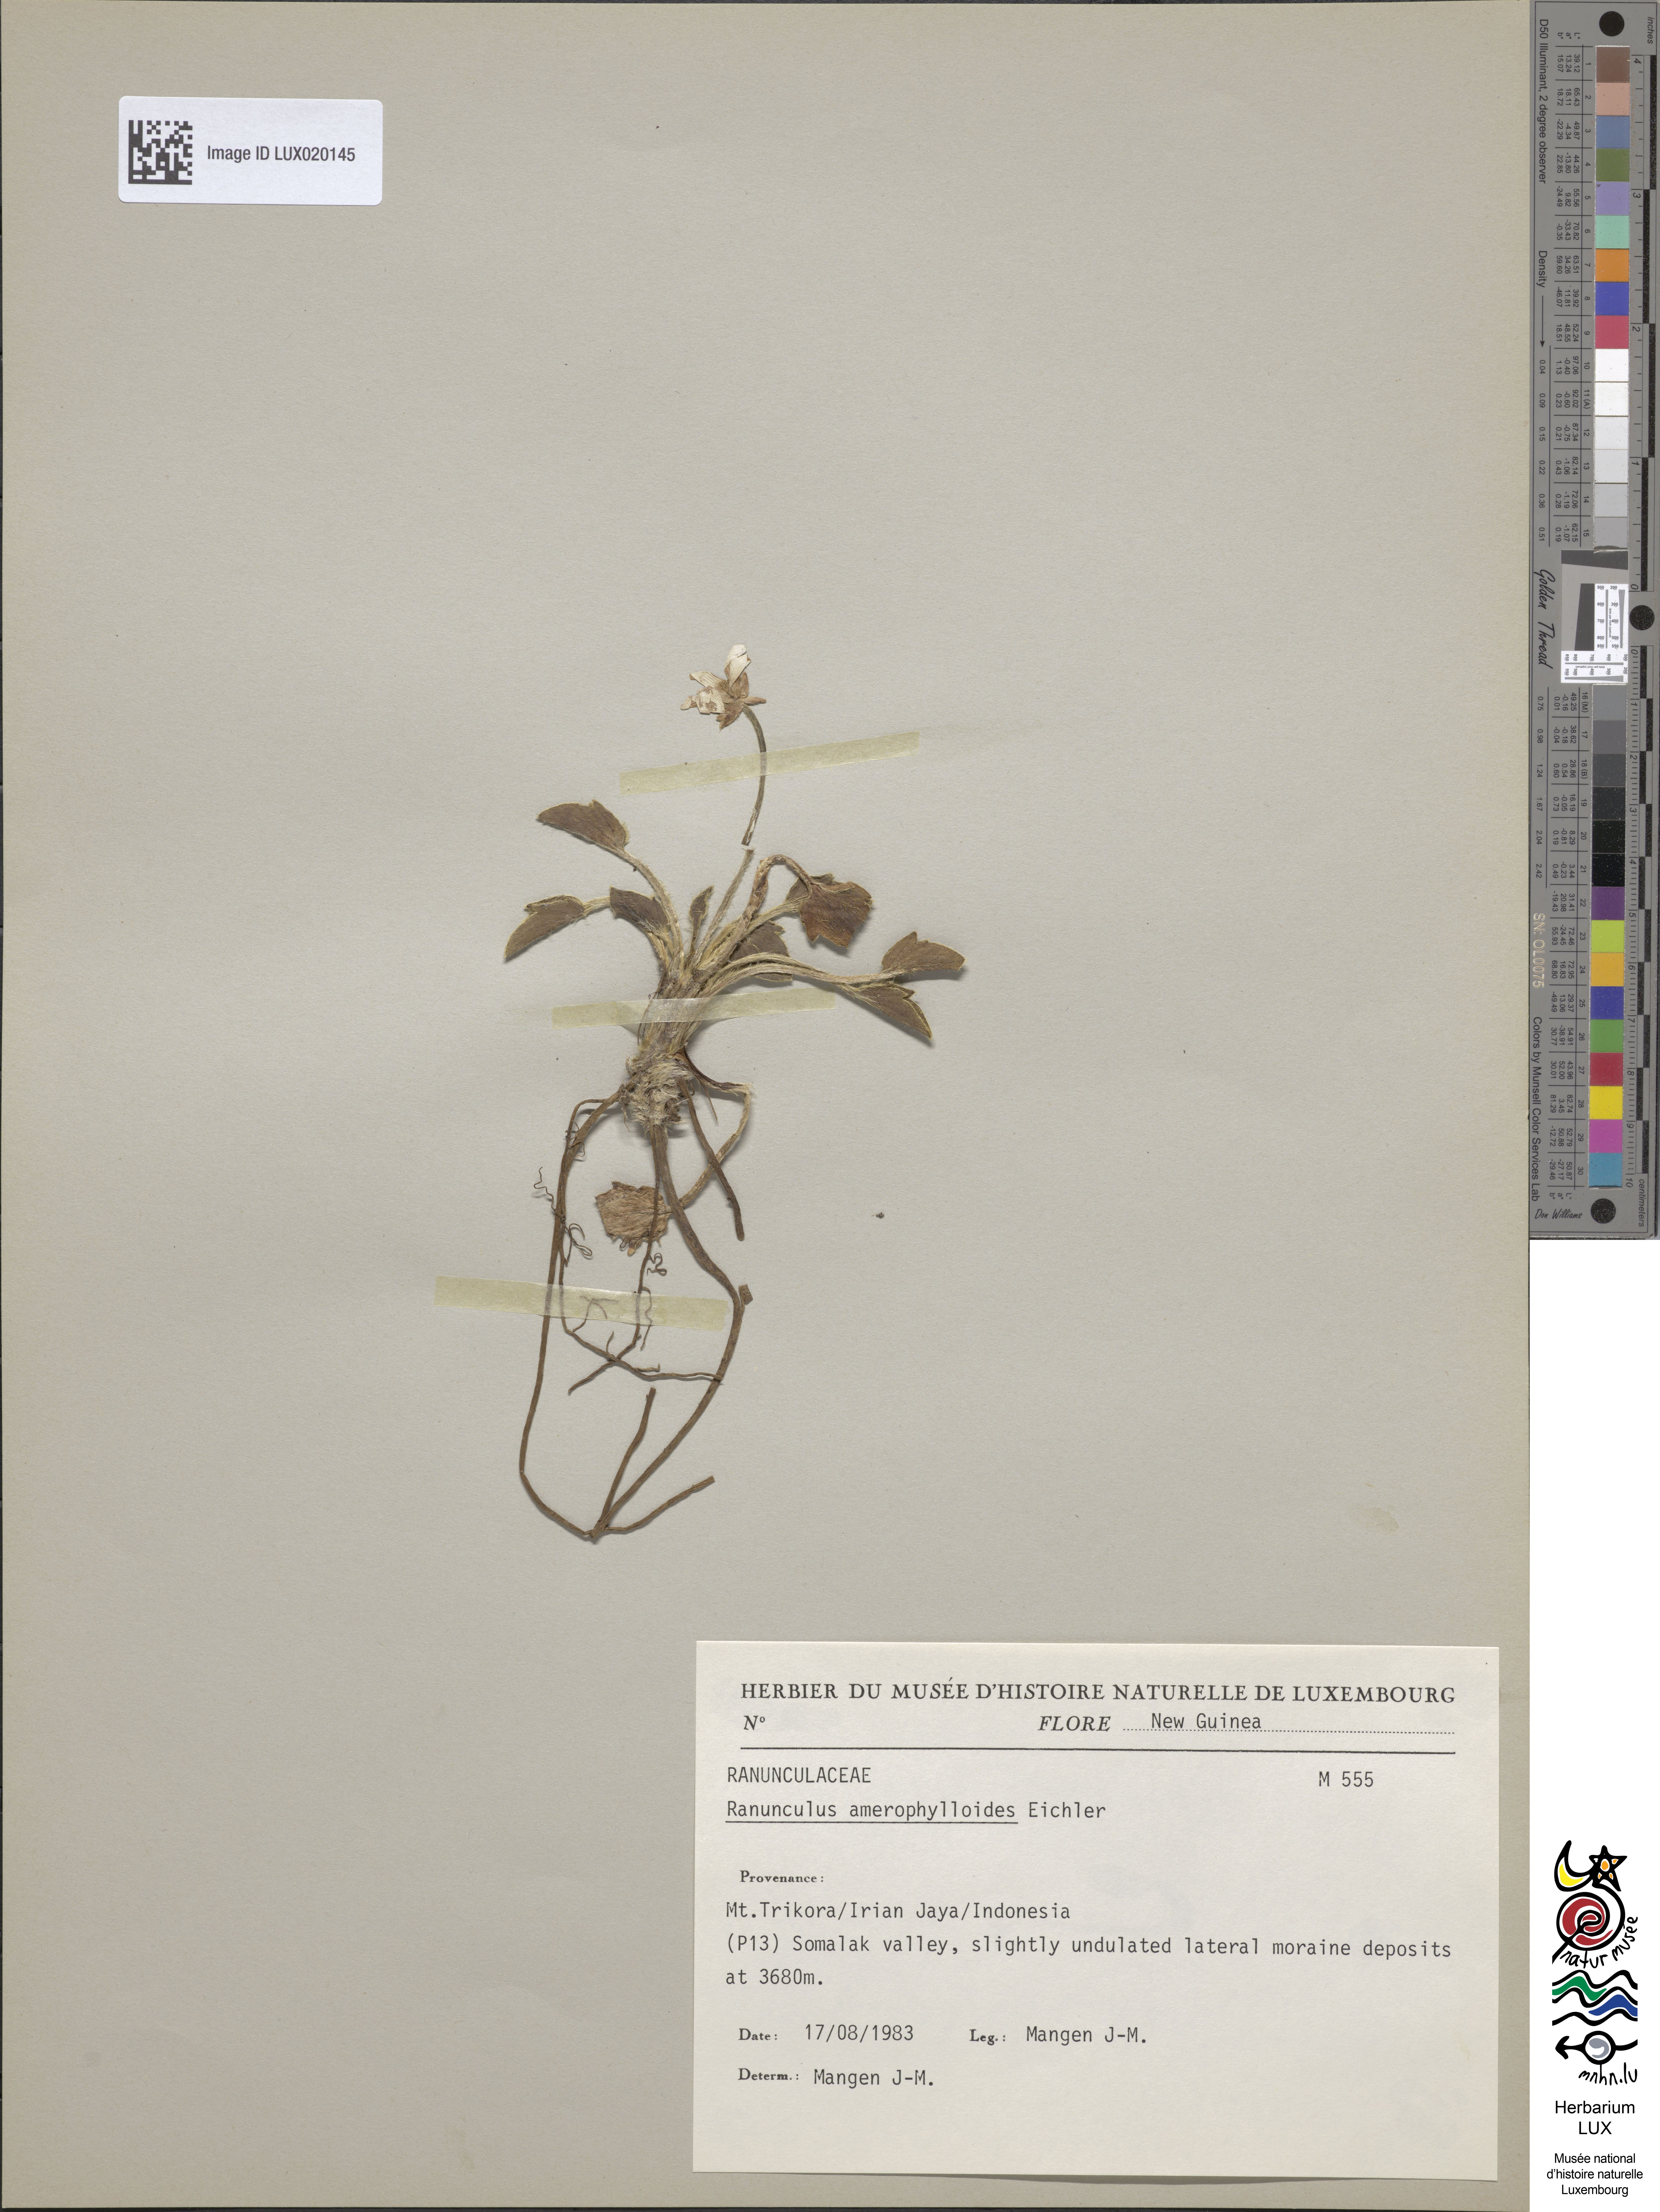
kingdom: Plantae
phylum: Tracheophyta
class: Magnoliopsida
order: Ranunculales
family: Ranunculaceae
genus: Ranunculus
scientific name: Ranunculus amerophylloides
